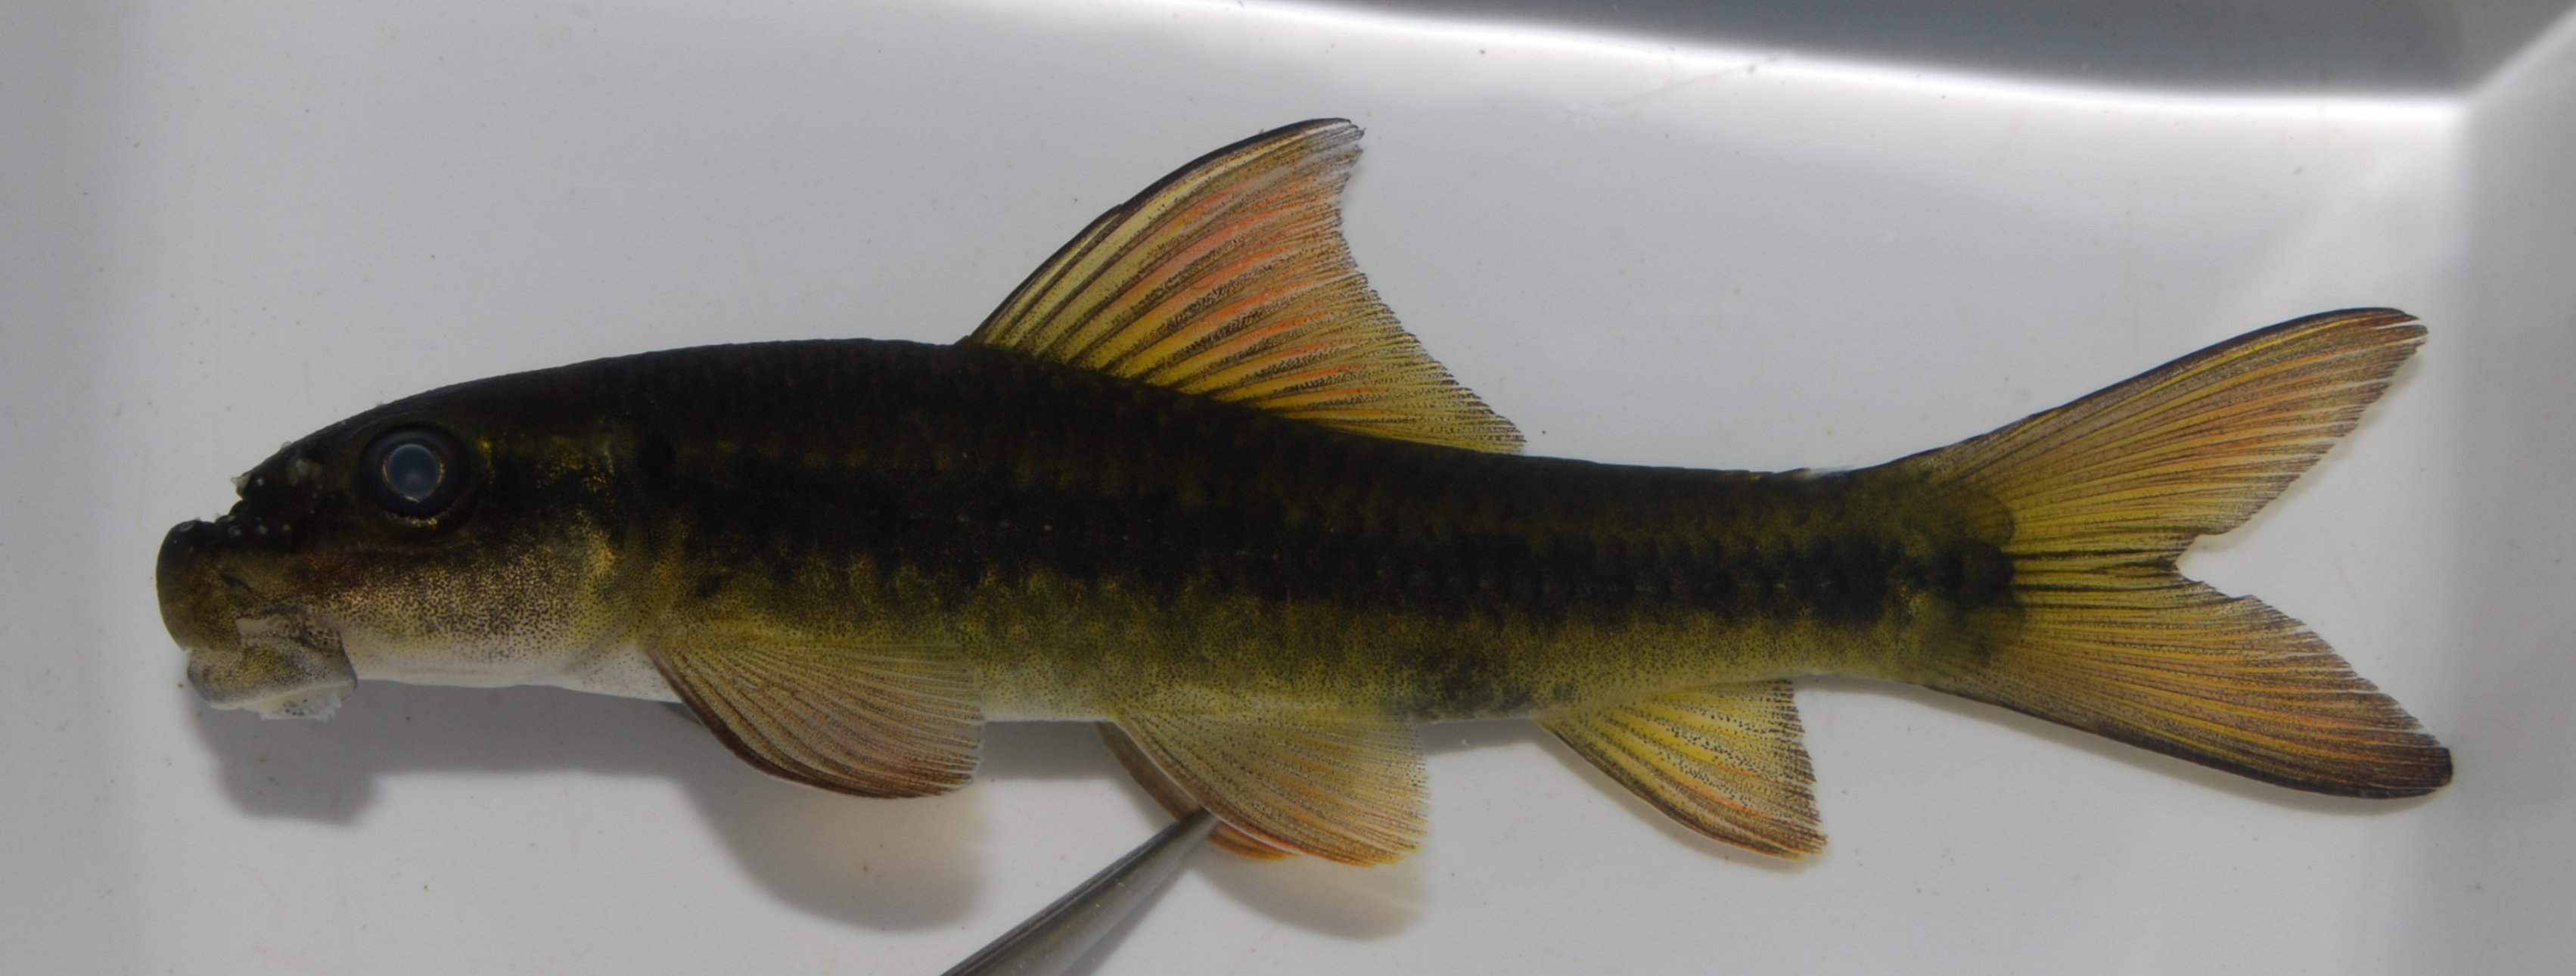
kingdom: Animalia
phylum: Chordata
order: Cypriniformes
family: Cyprinidae
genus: Labeo
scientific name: Labeo cylindricus
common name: Redeye labeo
